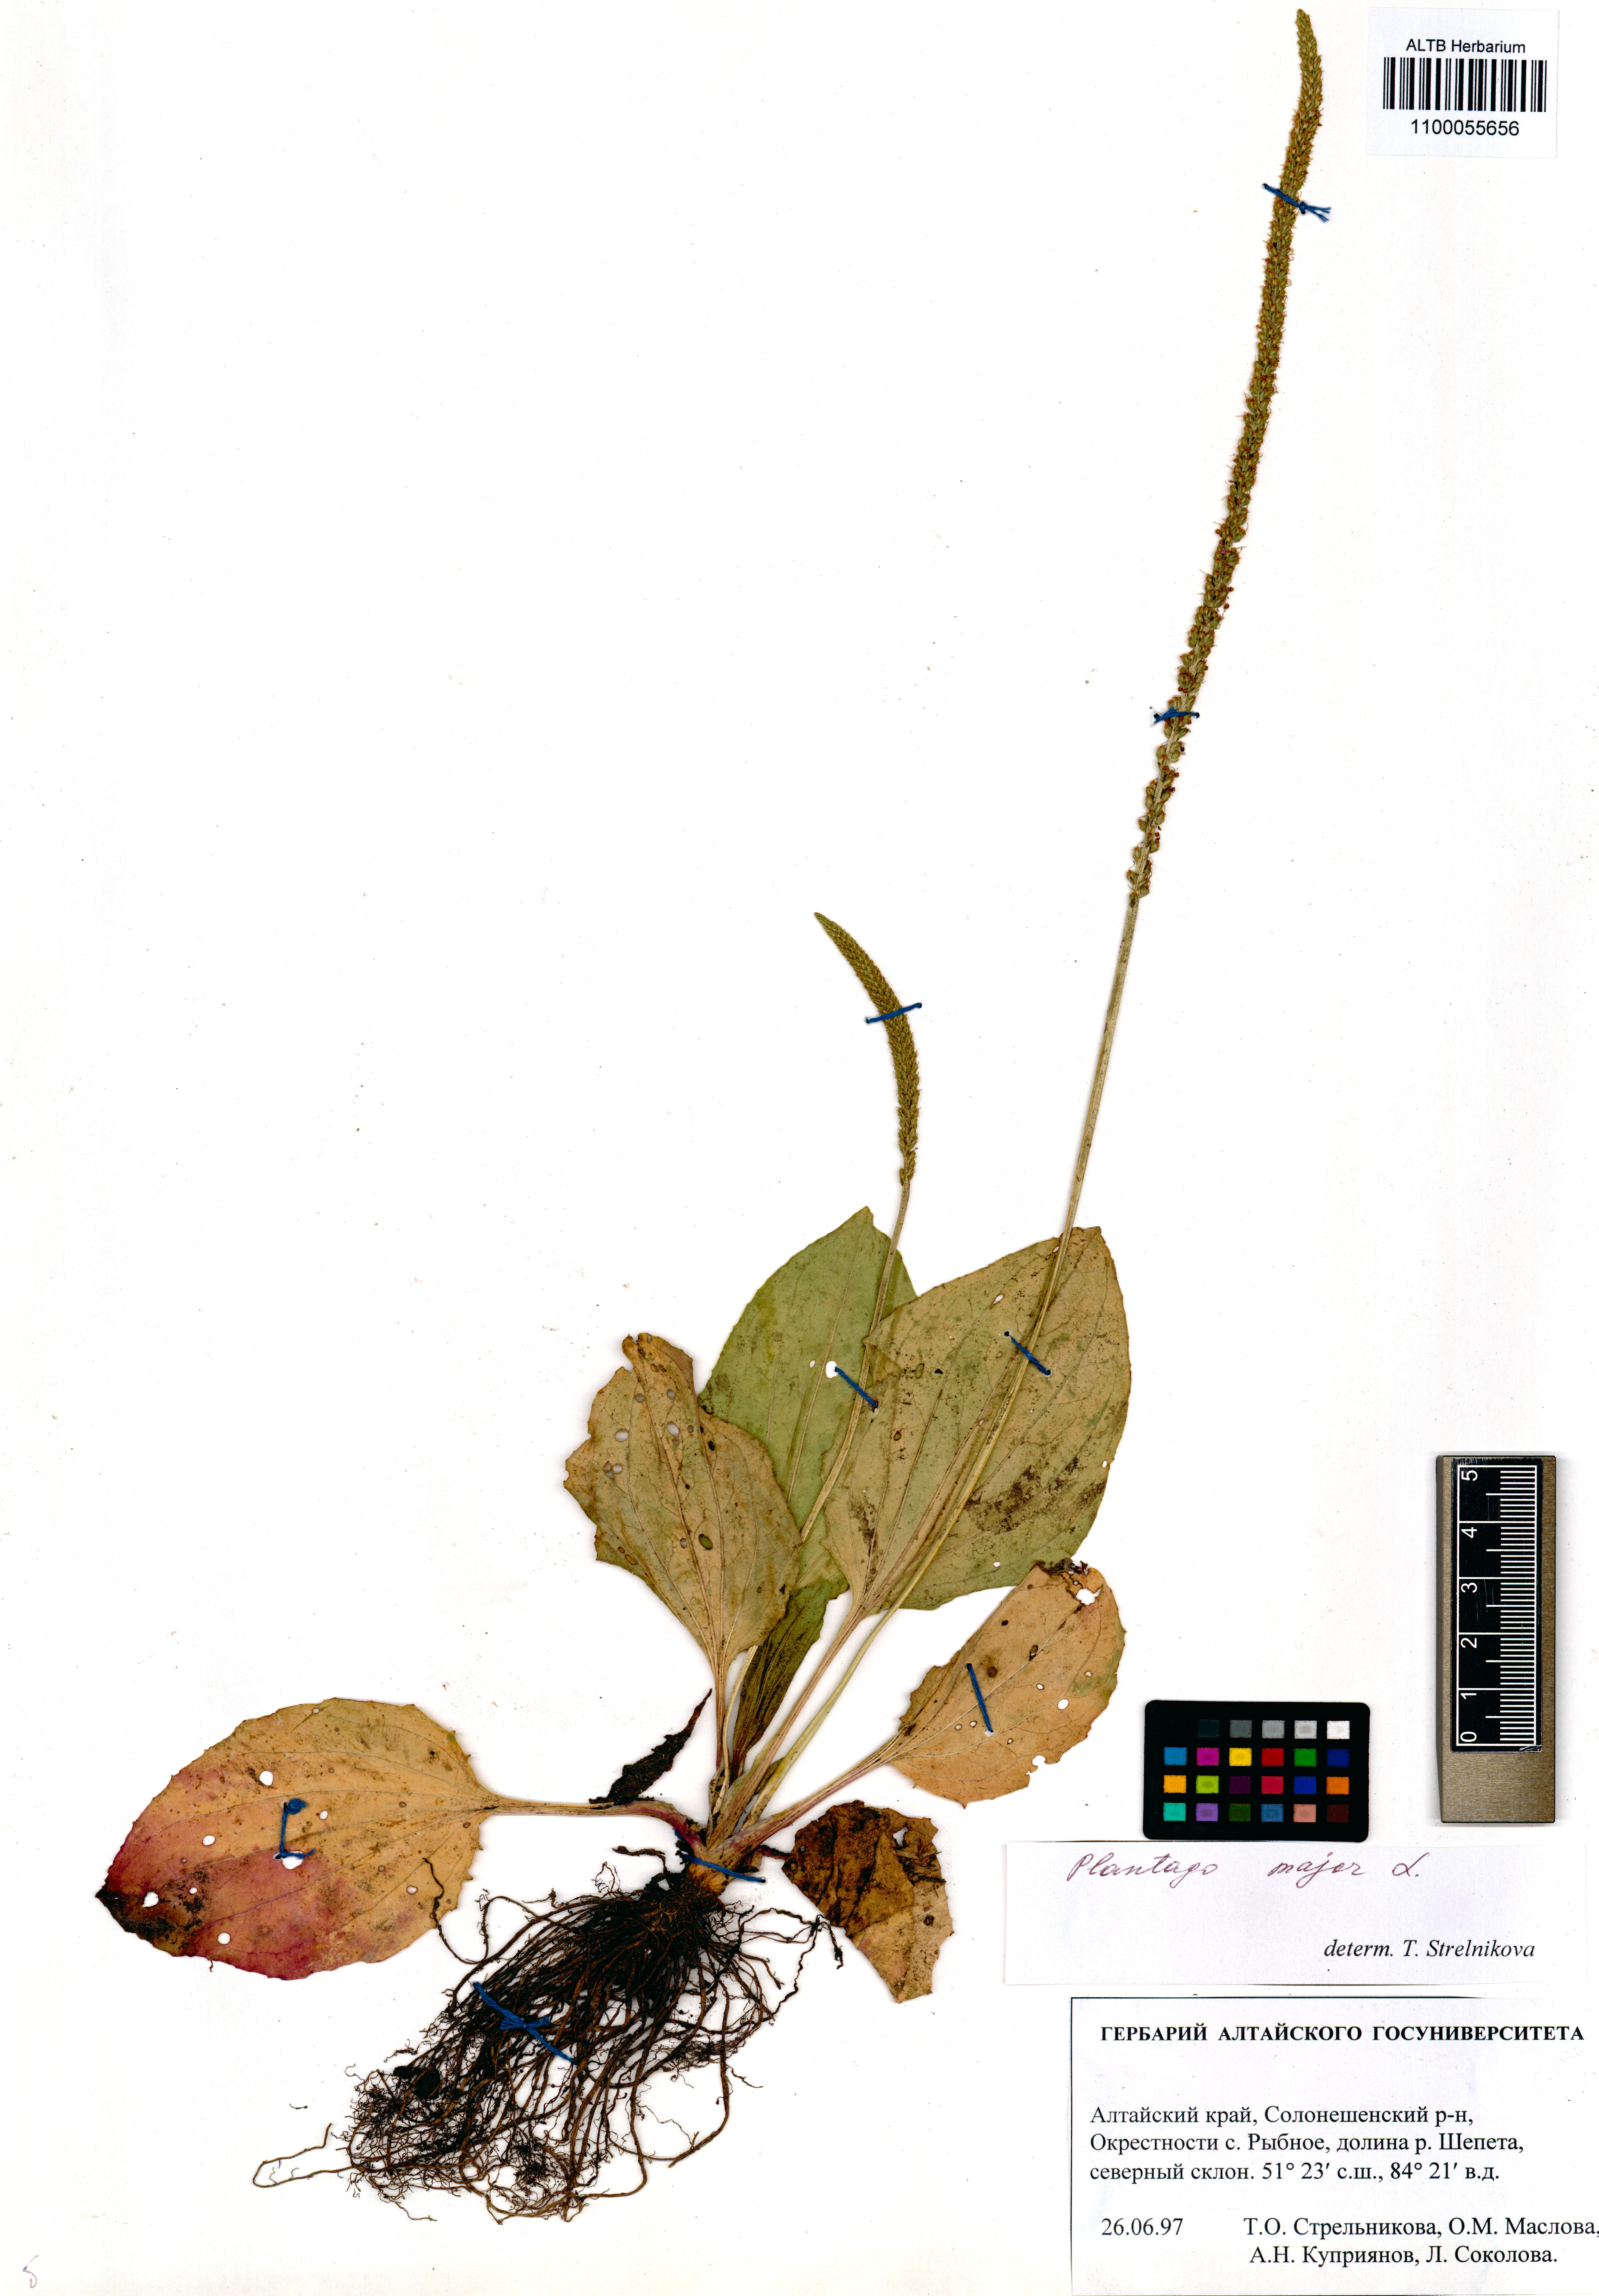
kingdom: Plantae
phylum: Tracheophyta
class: Magnoliopsida
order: Lamiales
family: Plantaginaceae
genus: Plantago
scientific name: Plantago major
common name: Common plantain
